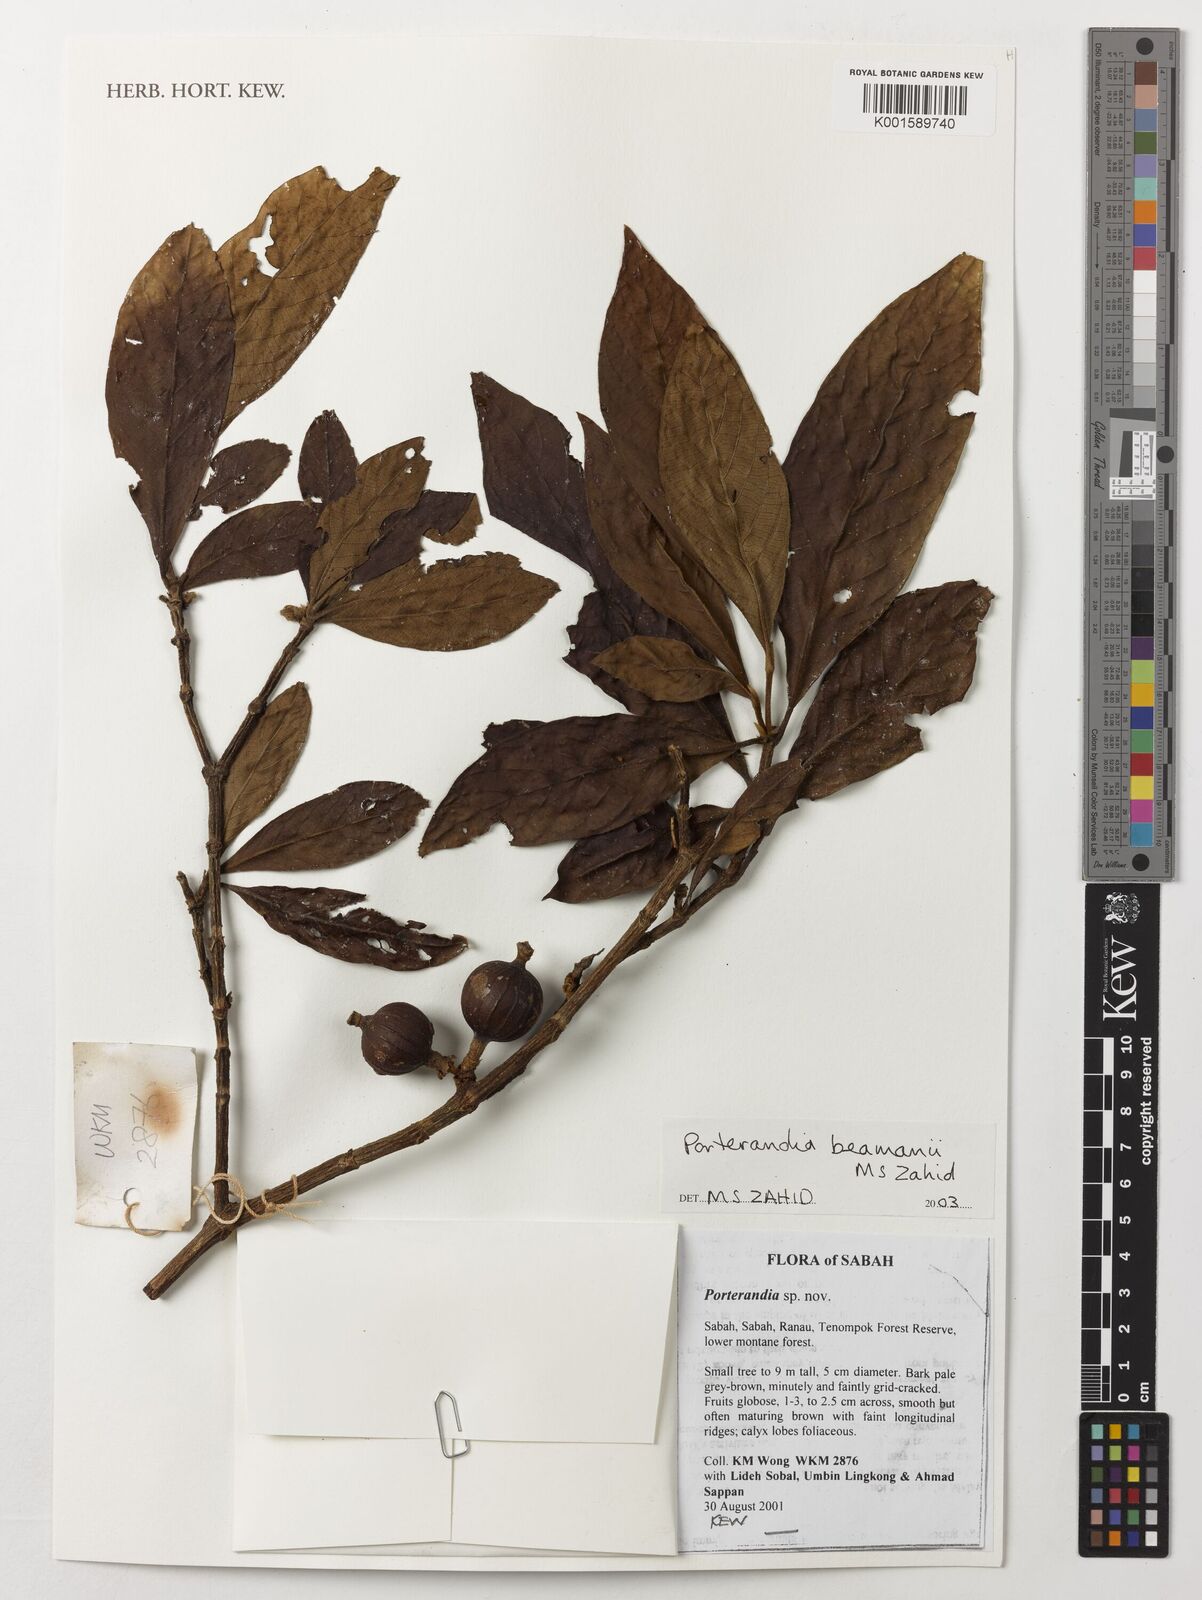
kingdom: Plantae
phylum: Tracheophyta
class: Magnoliopsida
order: Gentianales
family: Rubiaceae
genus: Porterandia
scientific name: Porterandia beamanii
